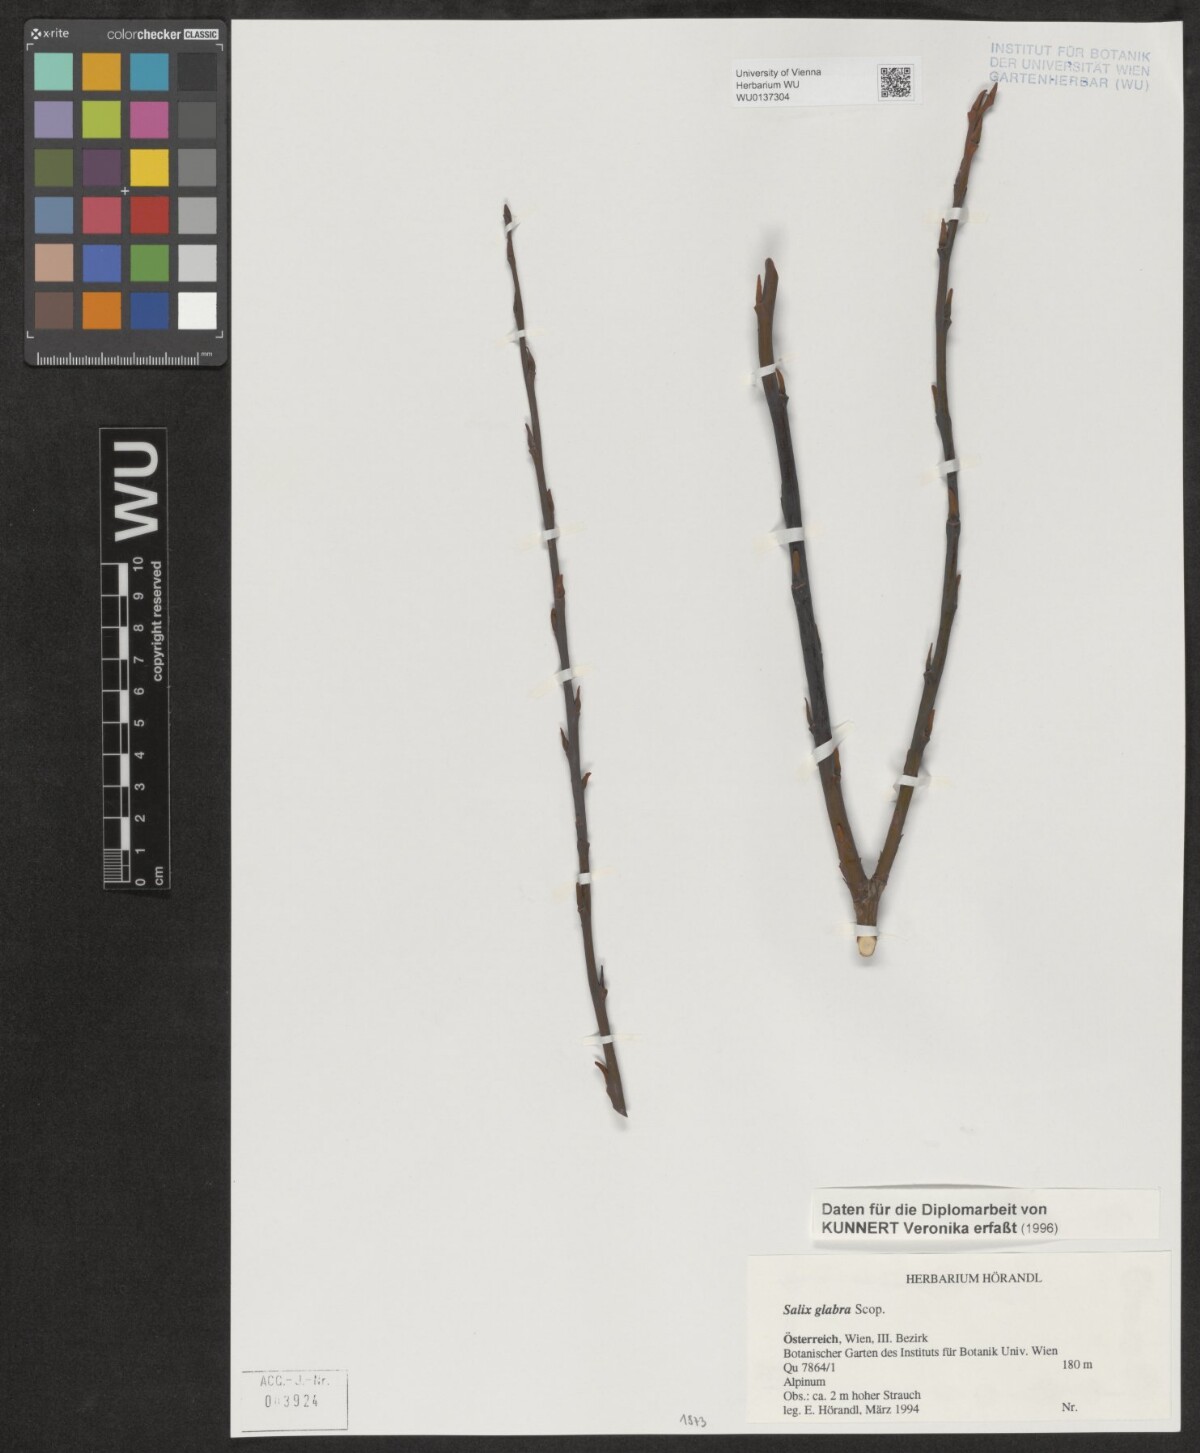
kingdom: Plantae
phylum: Tracheophyta
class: Magnoliopsida
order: Malpighiales
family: Salicaceae
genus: Salix
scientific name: Salix glabra
